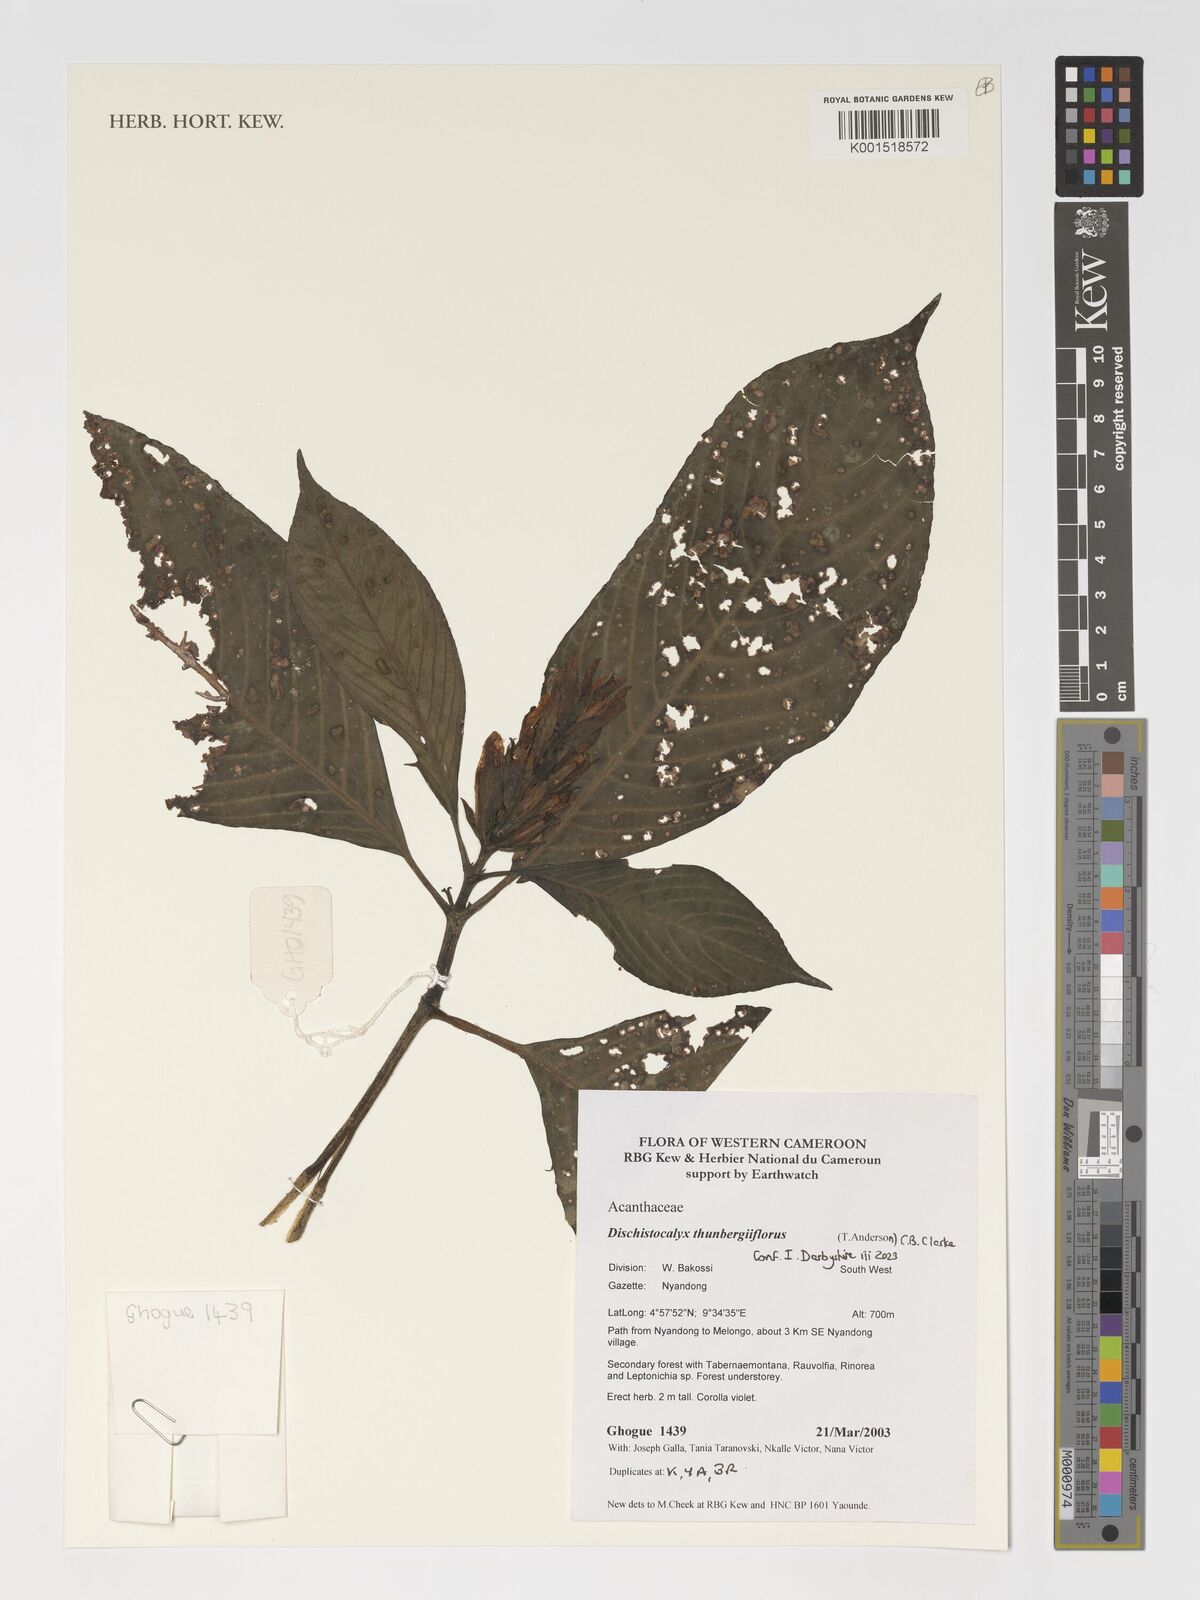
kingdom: Plantae
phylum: Tracheophyta
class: Magnoliopsida
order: Lamiales
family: Acanthaceae
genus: Dischistocalyx
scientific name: Dischistocalyx thunbergiiflora
